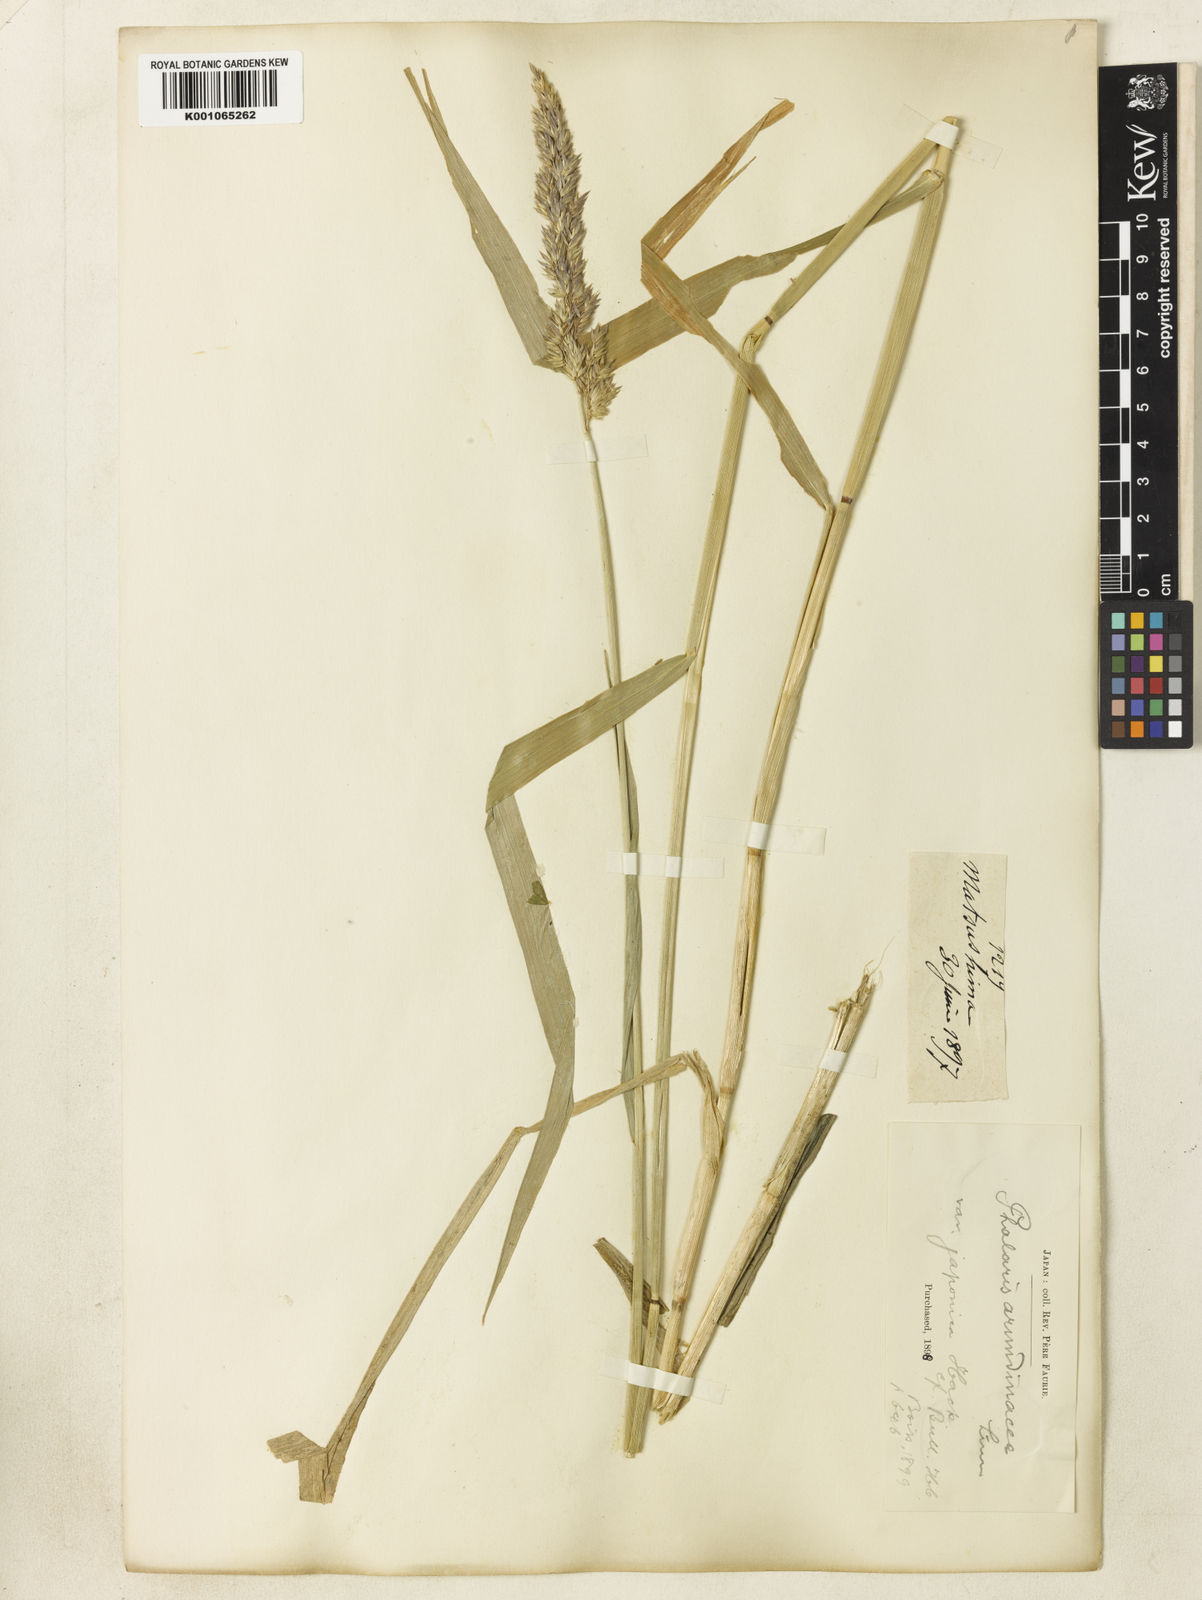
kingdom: Plantae
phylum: Tracheophyta
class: Liliopsida
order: Poales
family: Poaceae
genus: Phalaris
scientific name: Phalaris arundinacea
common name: Reed canary-grass
